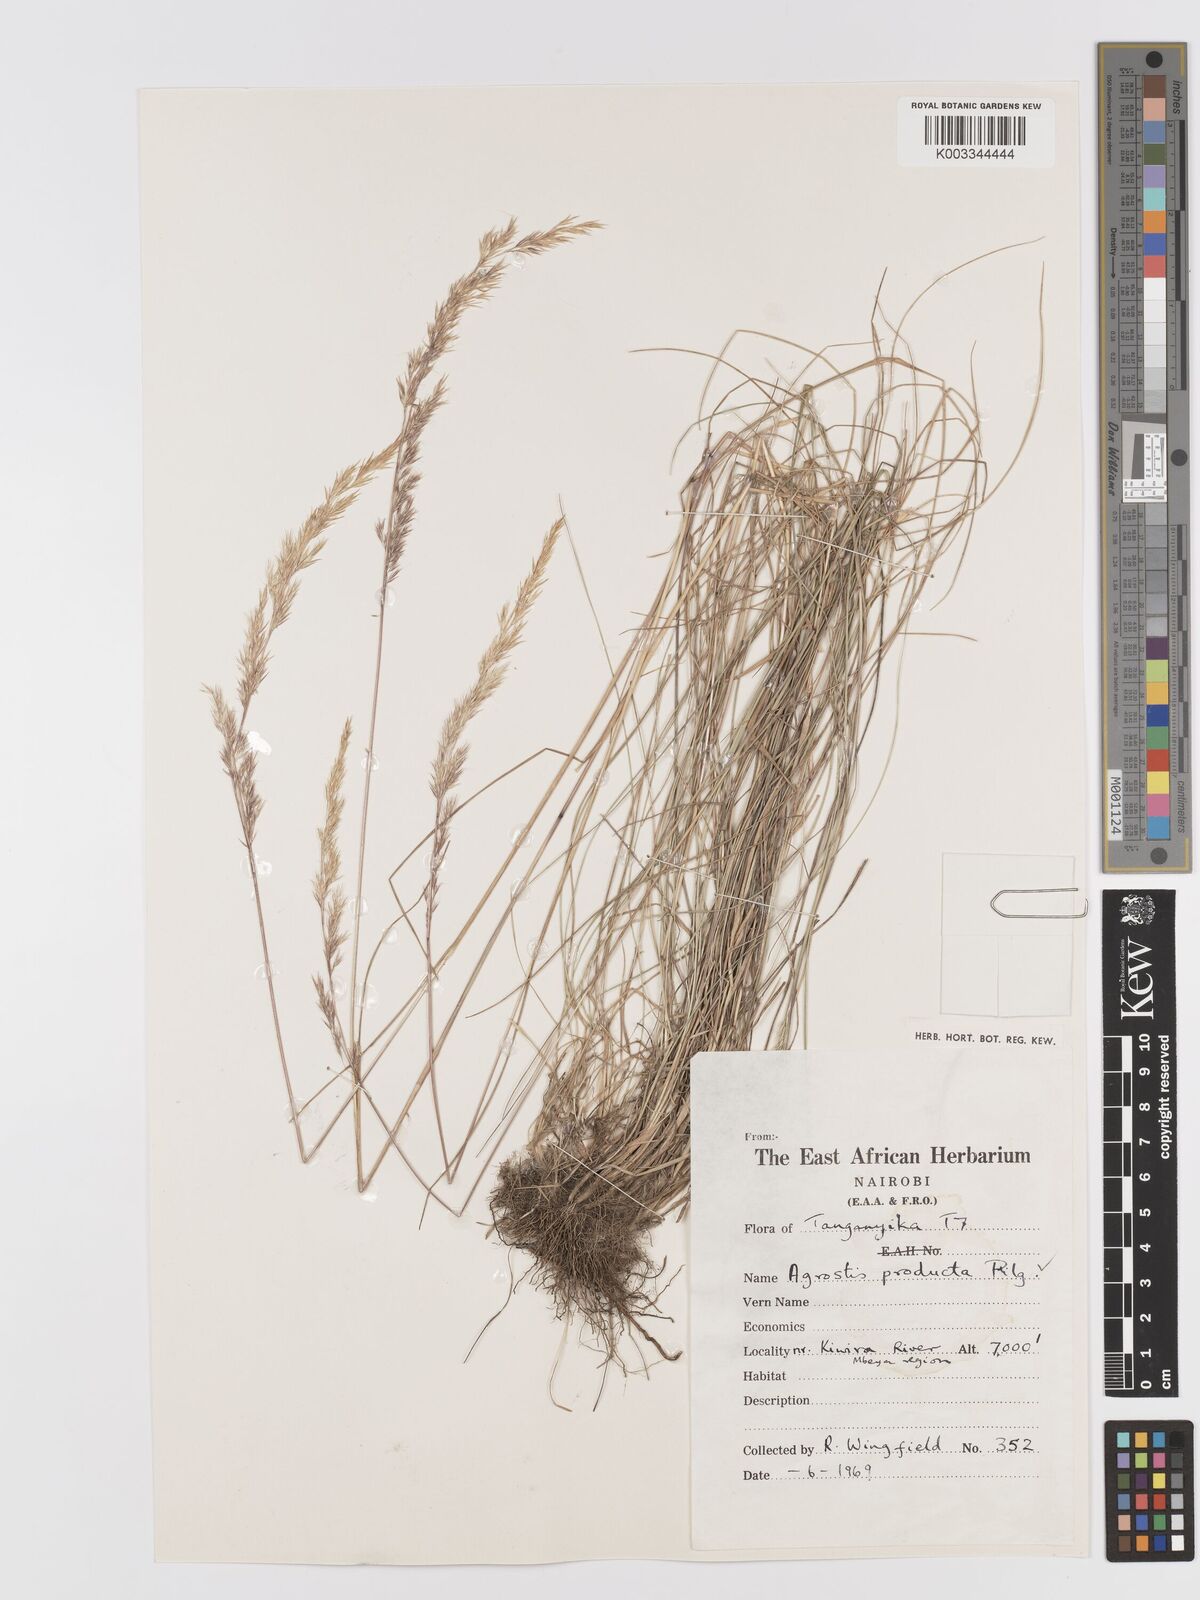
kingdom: Plantae
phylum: Tracheophyta
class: Liliopsida
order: Poales
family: Poaceae
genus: Agrostis
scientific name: Agrostis producta
